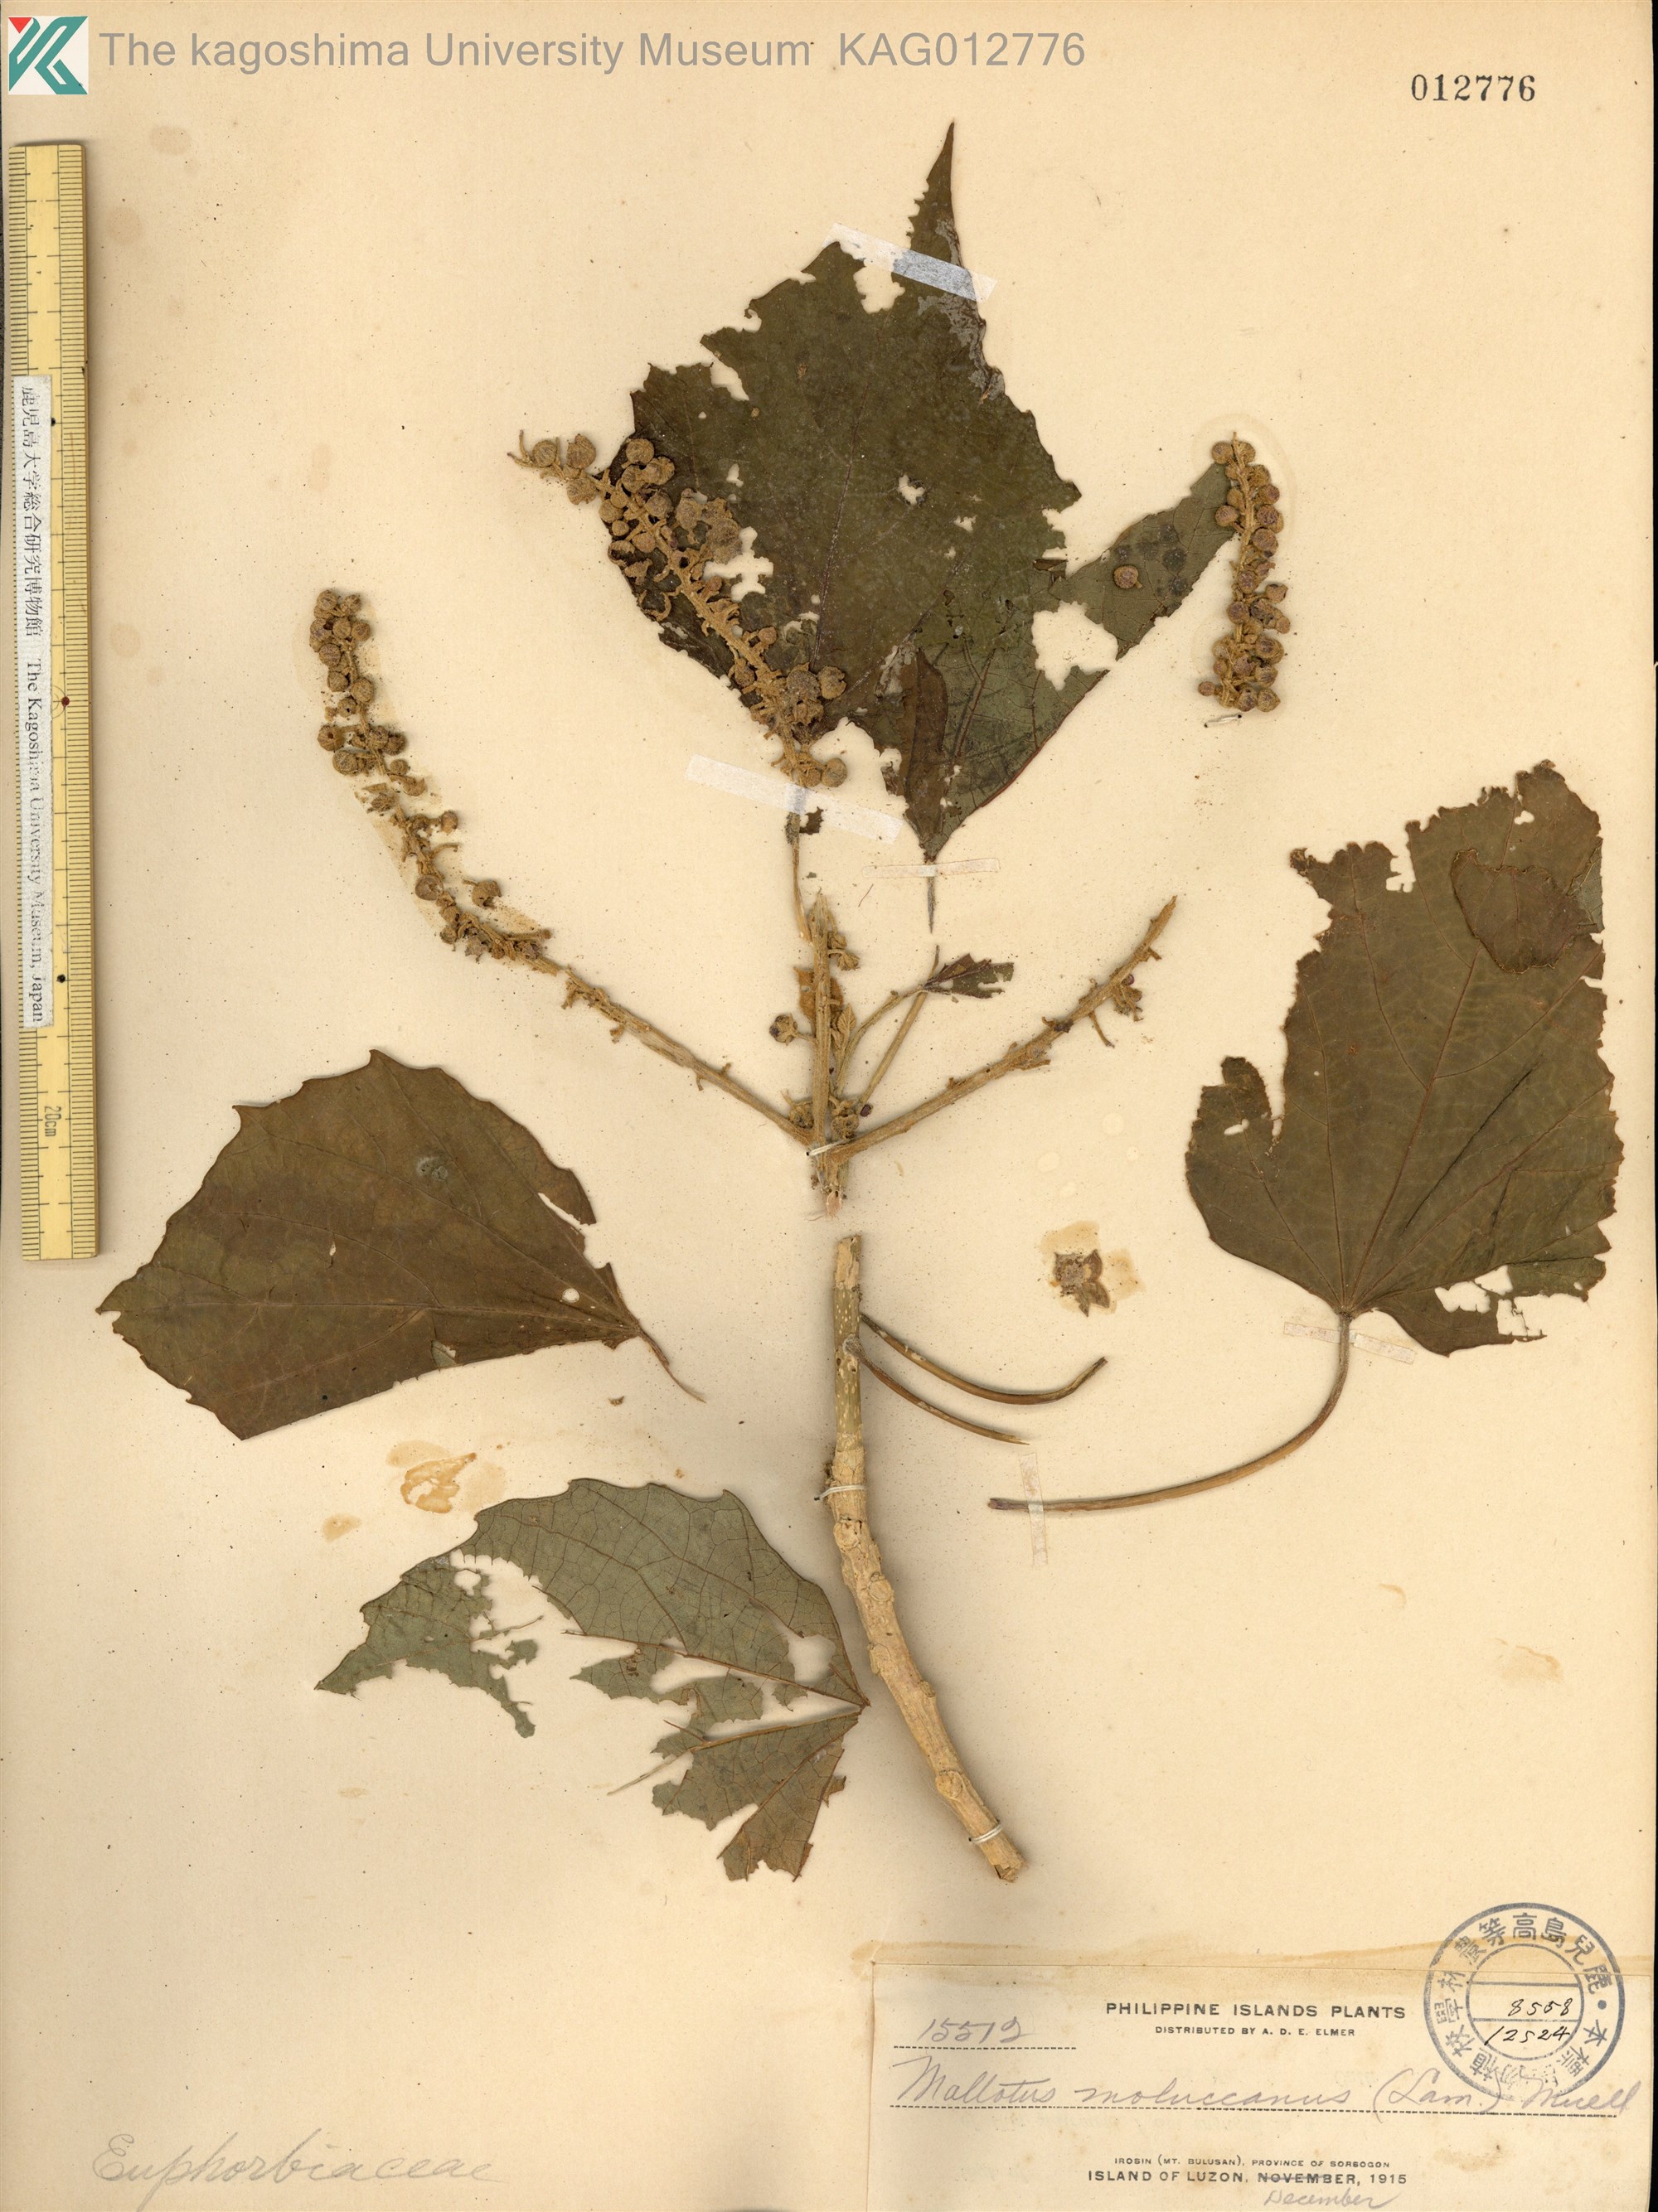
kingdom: Plantae
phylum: Tracheophyta
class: Magnoliopsida
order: Malpighiales
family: Euphorbiaceae
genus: Melanolepis
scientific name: Melanolepis multiglandulosa
